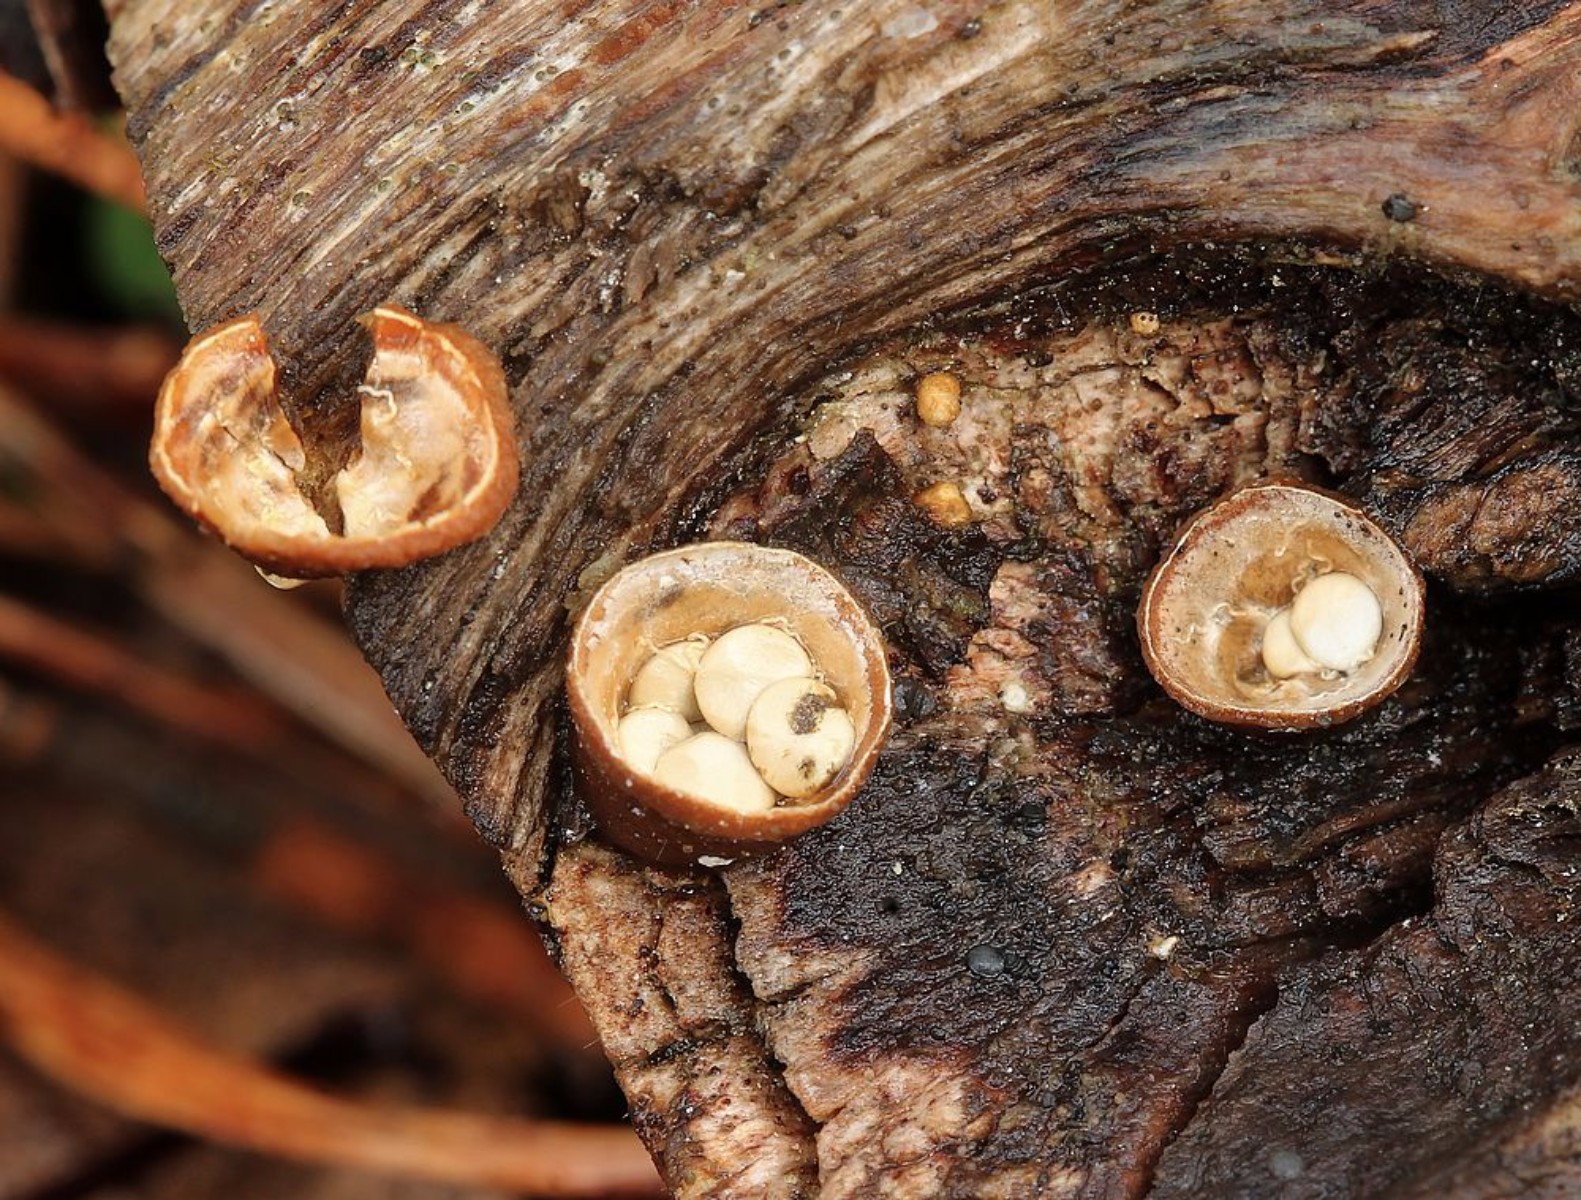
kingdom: Fungi
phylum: Basidiomycota
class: Agaricomycetes
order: Agaricales
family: Nidulariaceae
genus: Crucibulum
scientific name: Crucibulum crucibuliforme
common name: krukkesvamp
